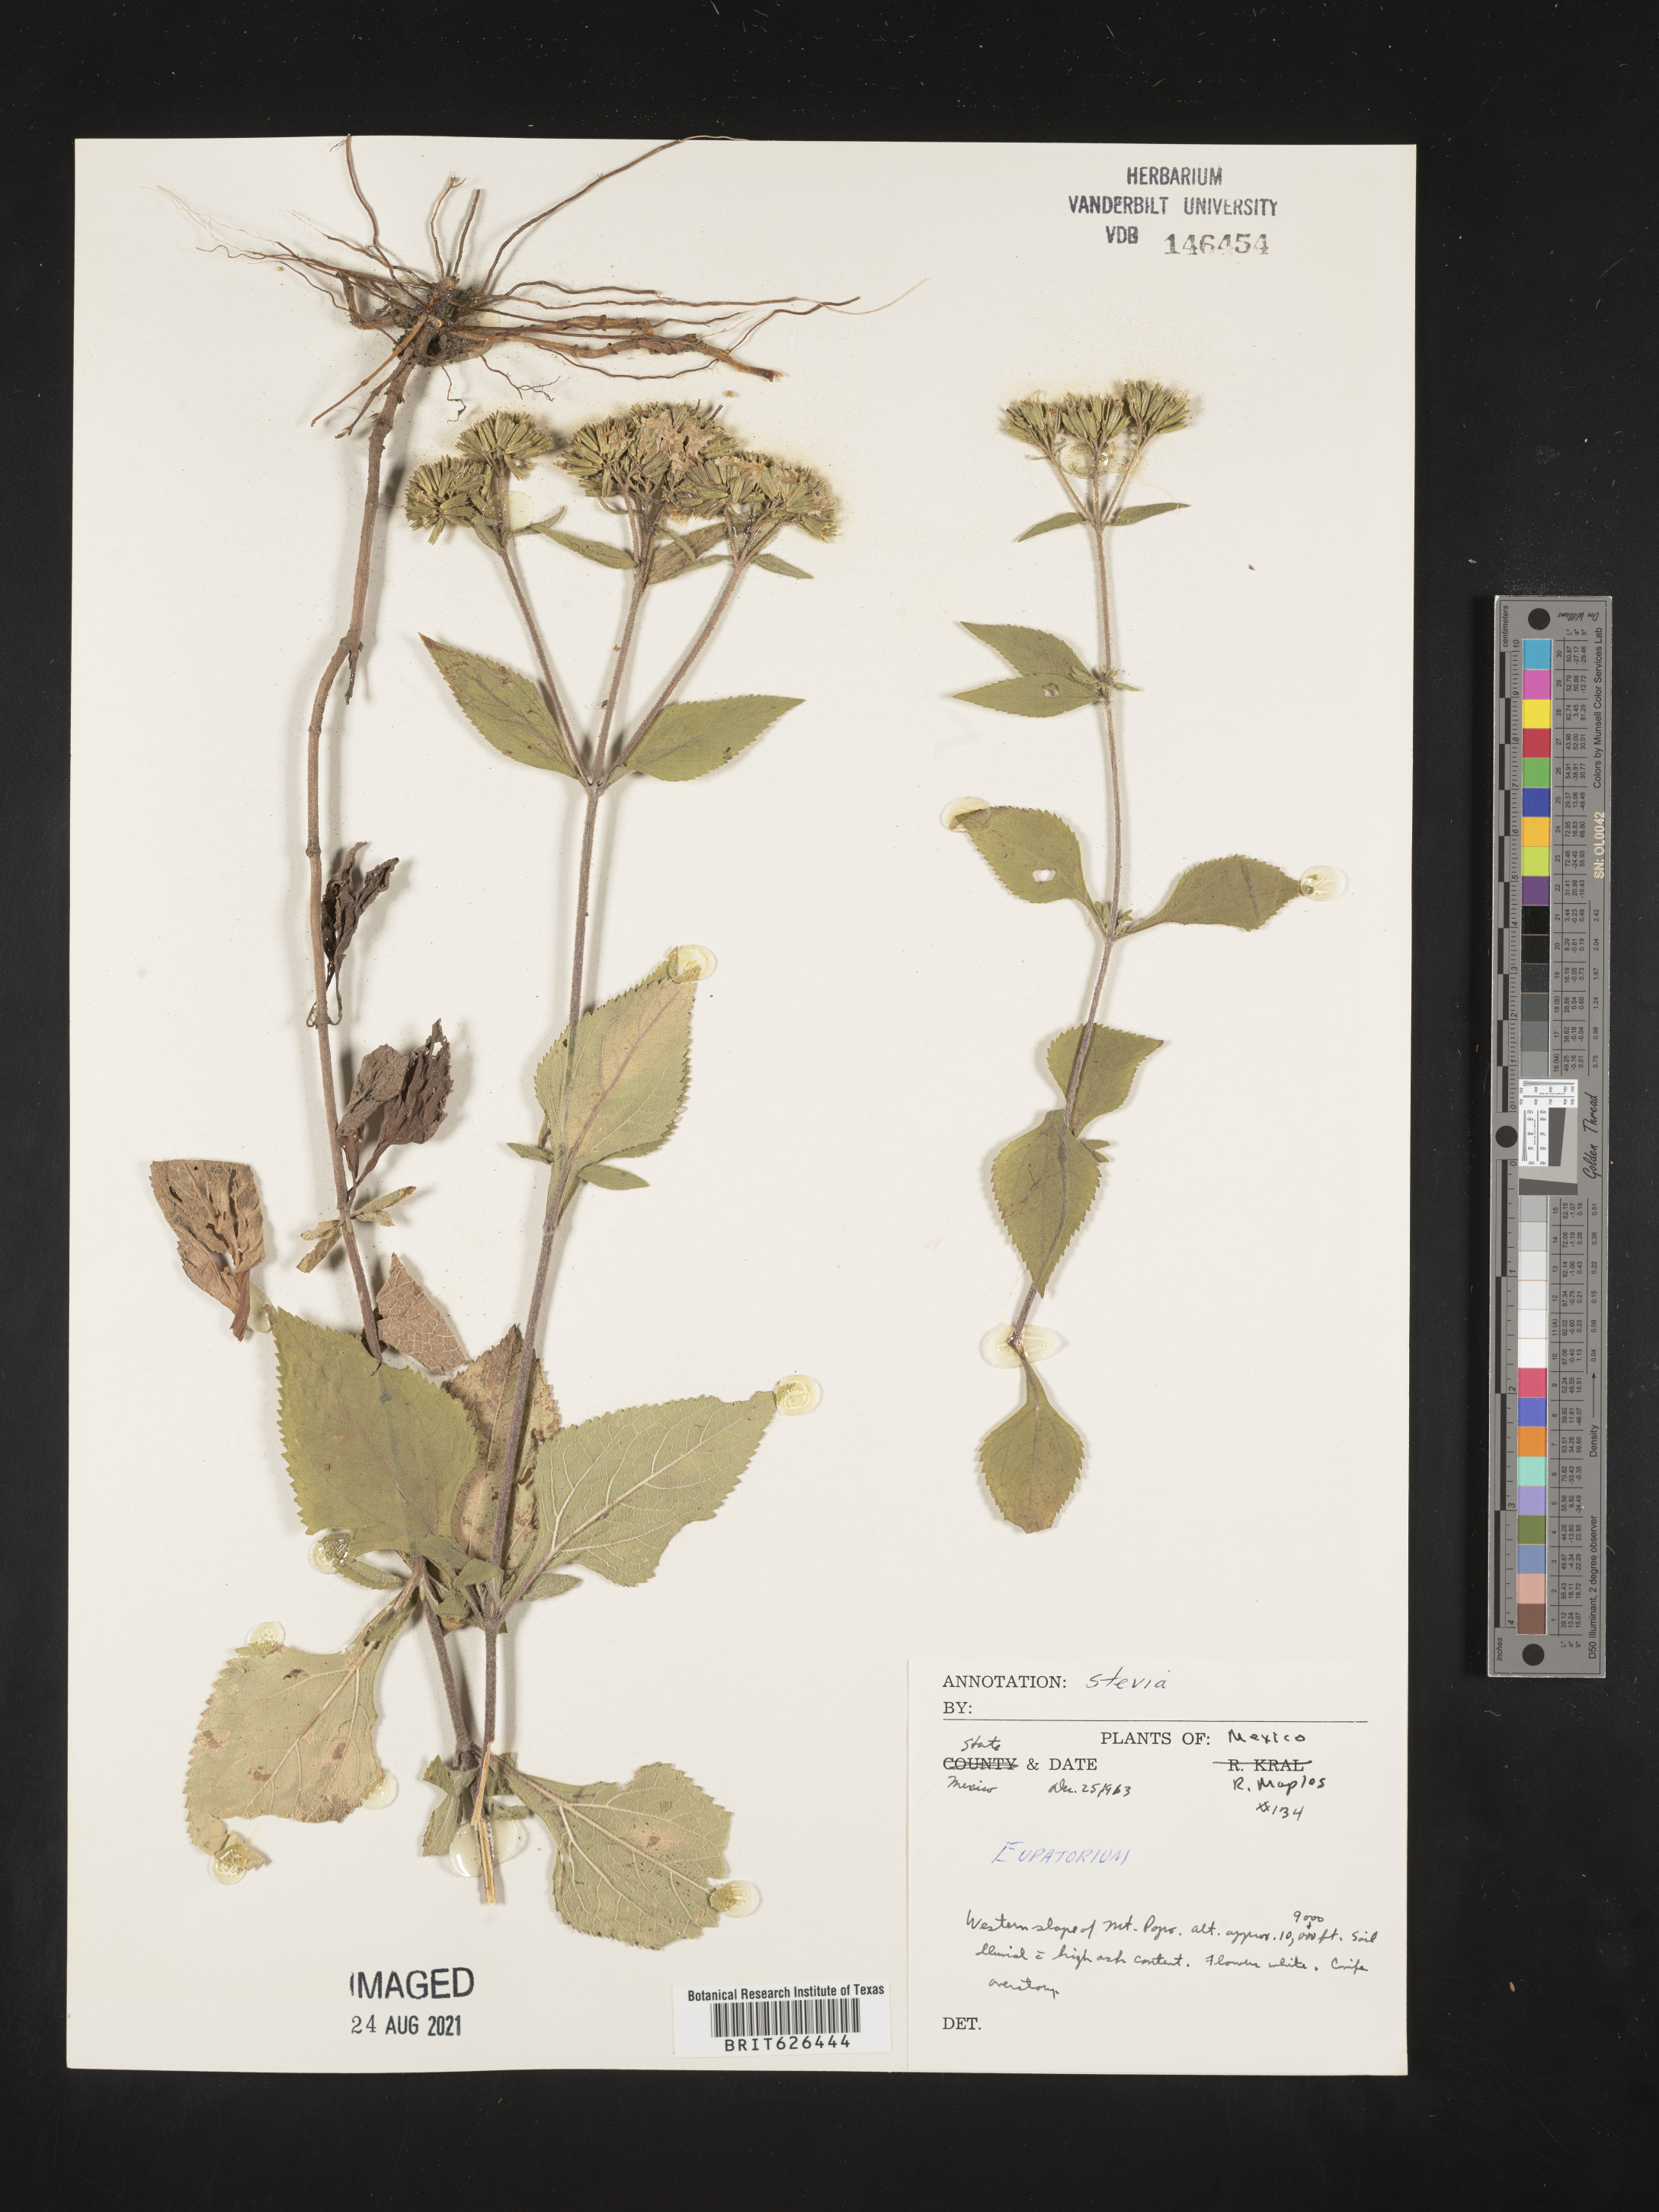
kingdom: Plantae
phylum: Tracheophyta
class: Magnoliopsida
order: Asterales
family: Asteraceae
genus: Stevia
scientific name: Stevia
